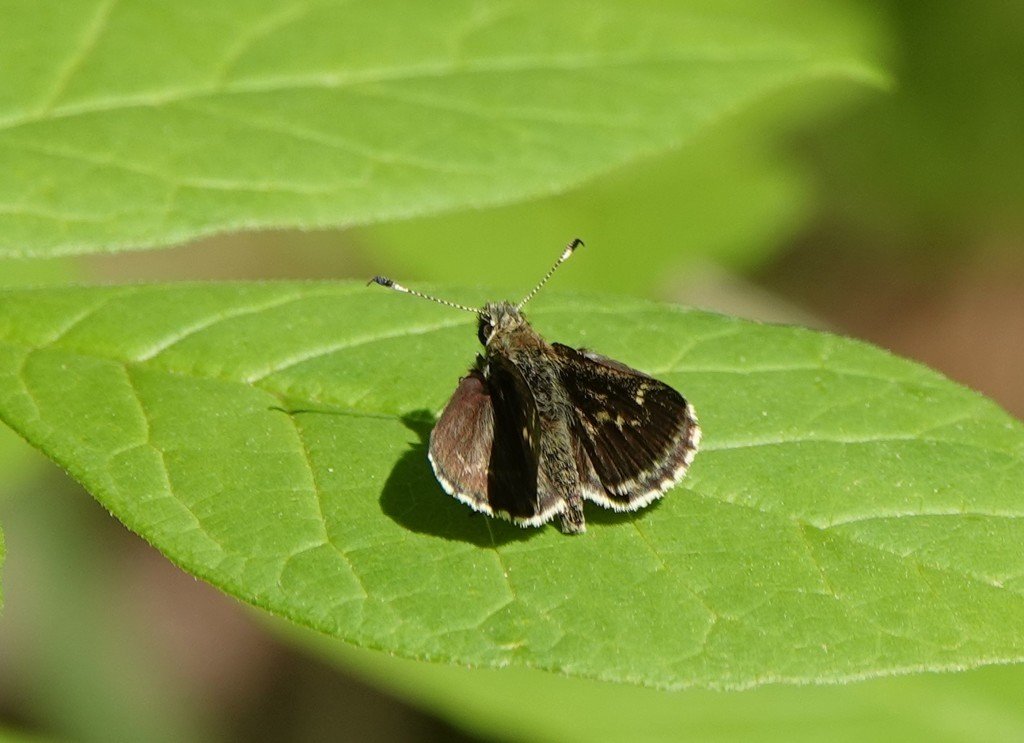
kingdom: Animalia
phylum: Arthropoda
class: Insecta
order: Lepidoptera
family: Hesperiidae
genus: Mastor
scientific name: Mastor hegon
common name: Pepper and Salt Skipper
